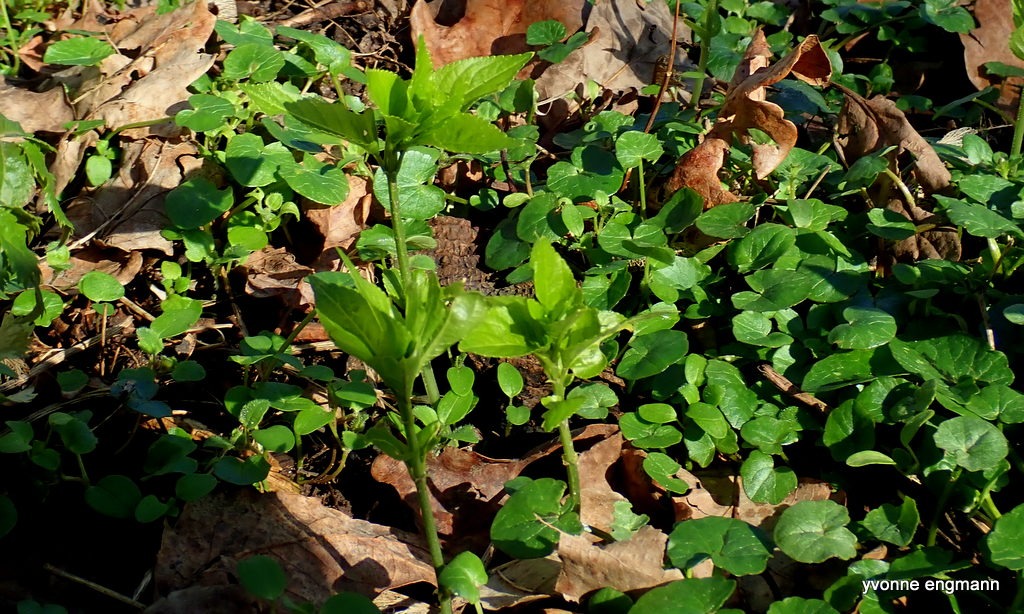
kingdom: Plantae
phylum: Tracheophyta
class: Magnoliopsida
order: Malpighiales
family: Euphorbiaceae
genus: Mercurialis
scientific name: Mercurialis perennis
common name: Almindelig bingelurt
